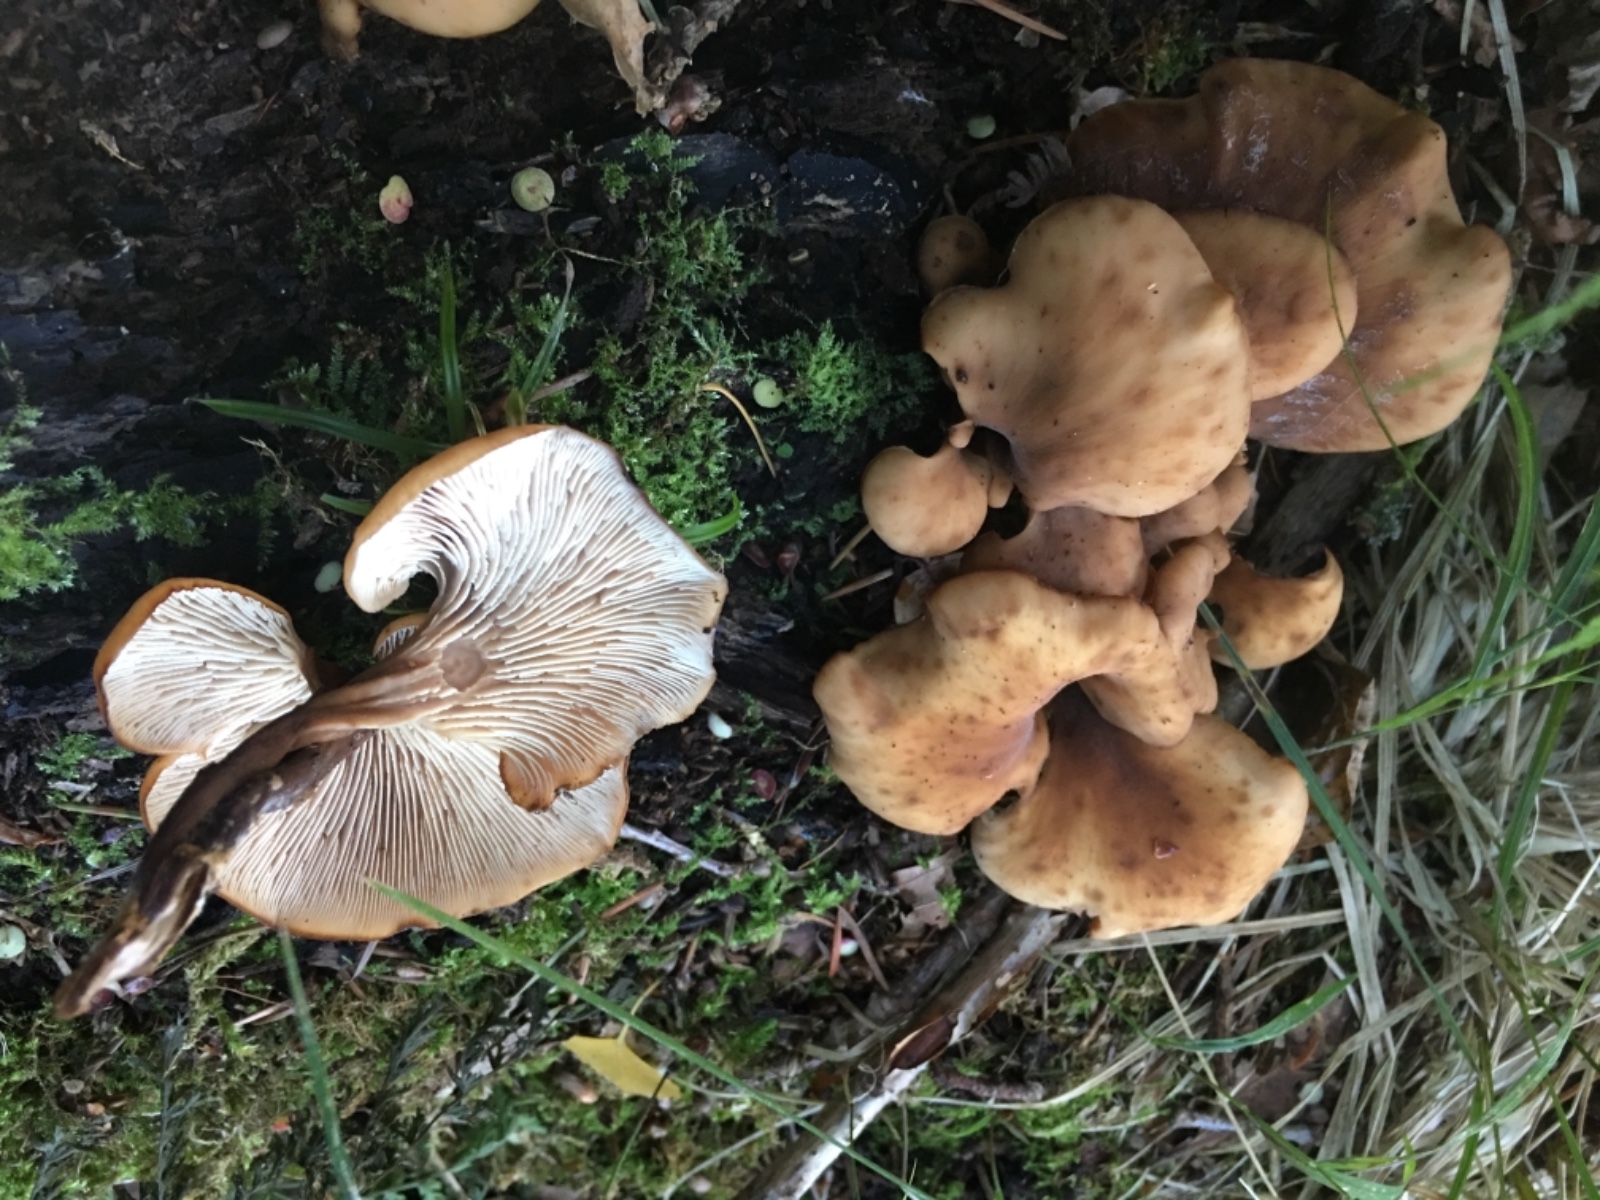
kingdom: Fungi
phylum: Basidiomycota
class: Agaricomycetes
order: Russulales
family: Auriscalpiaceae
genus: Lentinellus
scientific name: Lentinellus cochleatus
